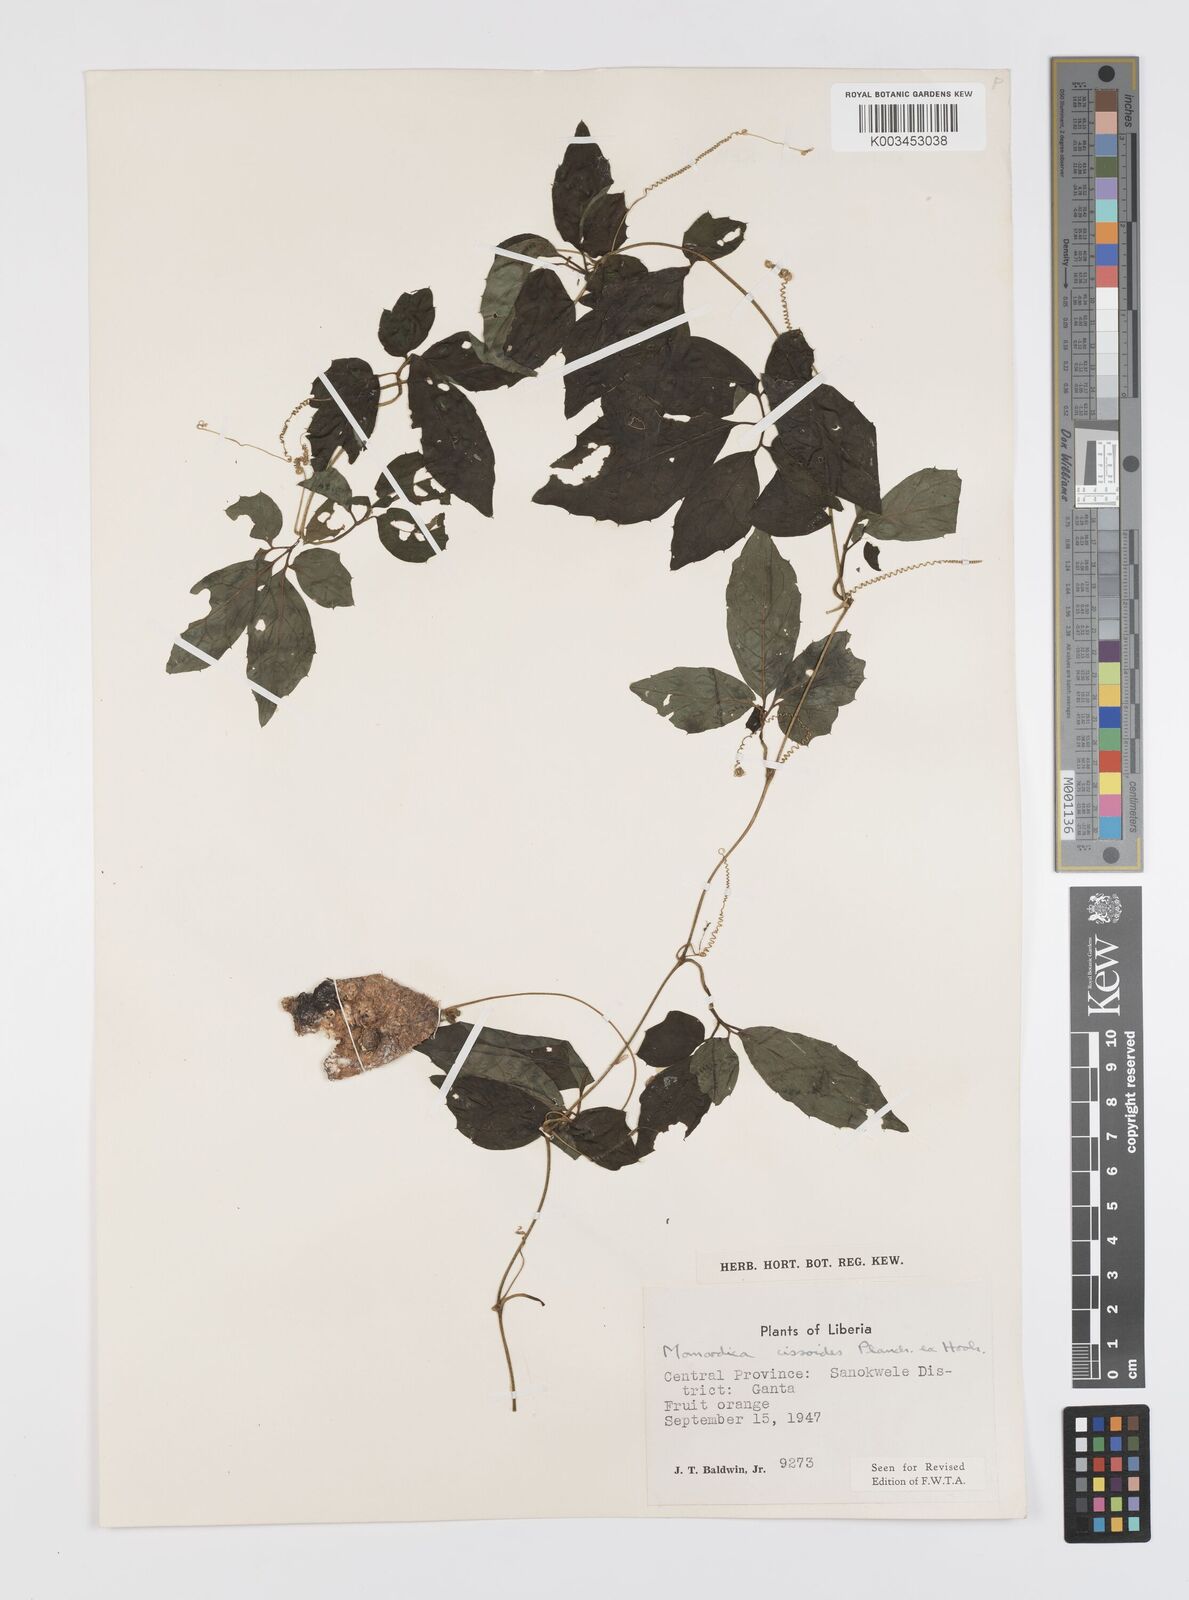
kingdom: Plantae
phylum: Tracheophyta
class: Magnoliopsida
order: Cucurbitales
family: Cucurbitaceae
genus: Momordica
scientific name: Momordica cissoides
